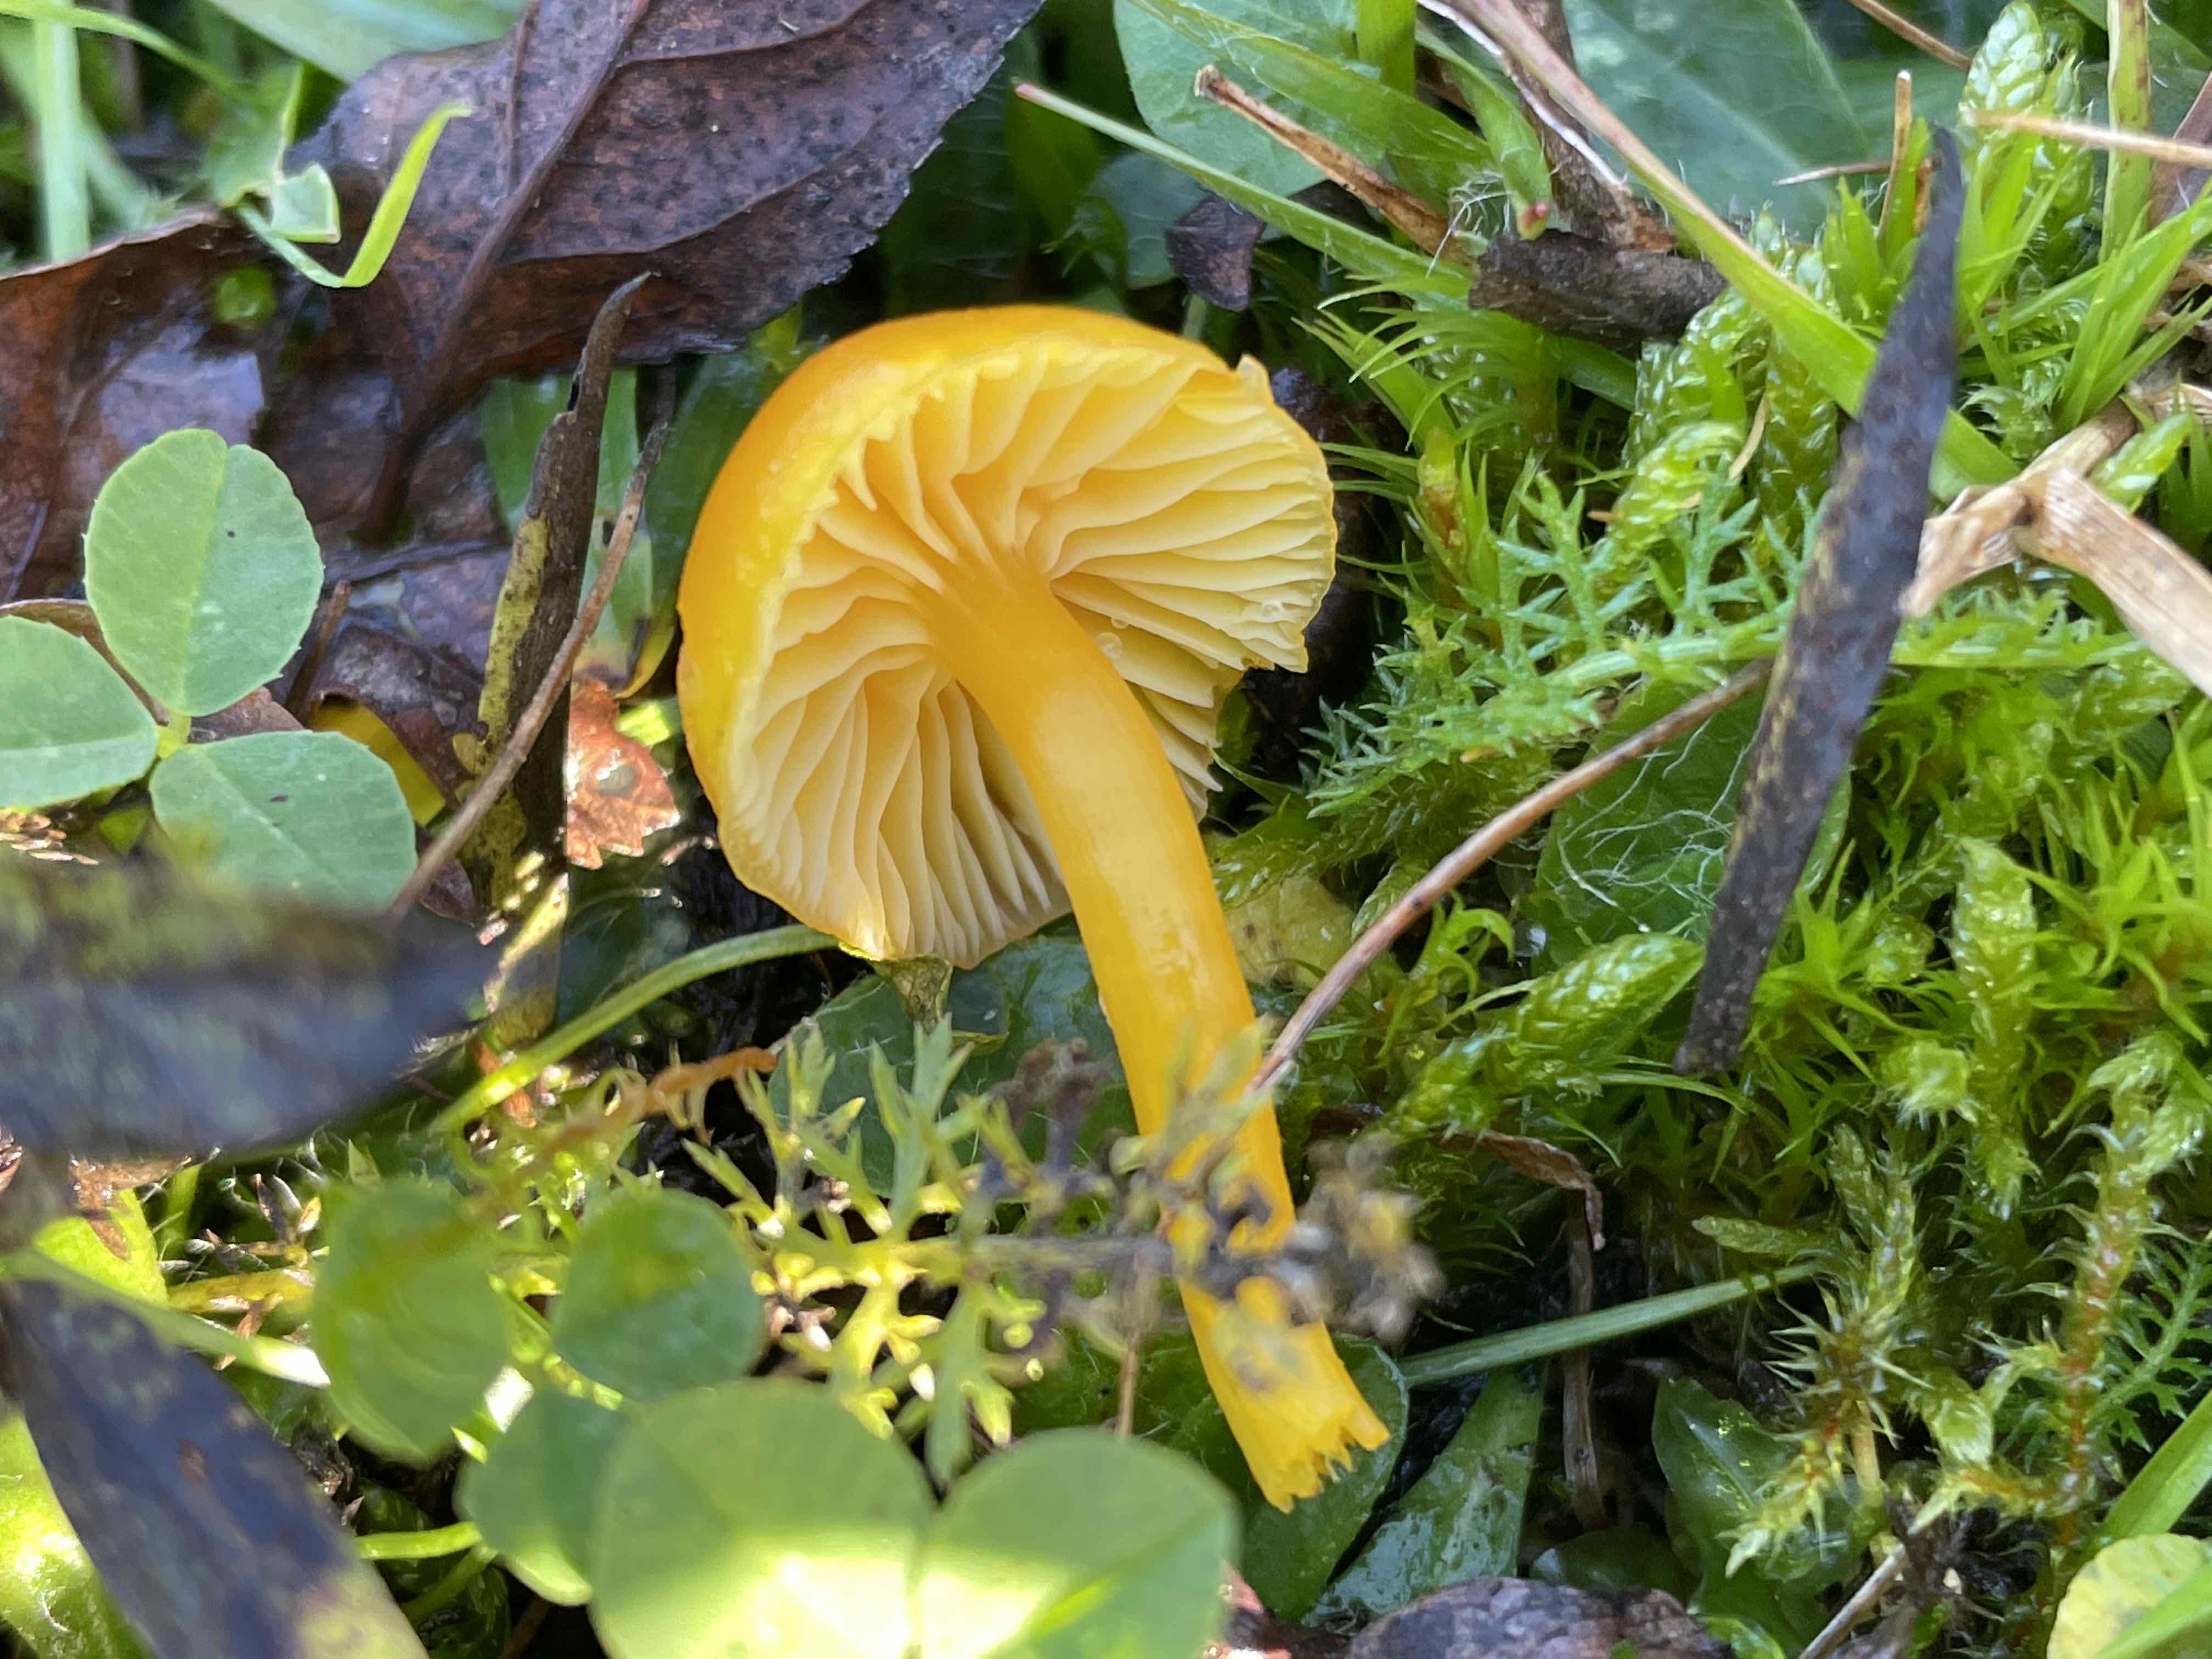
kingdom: Fungi
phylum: Basidiomycota
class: Agaricomycetes
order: Agaricales
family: Hygrophoraceae
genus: Hygrocybe
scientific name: Hygrocybe ceracea
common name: voksgul vokshat
